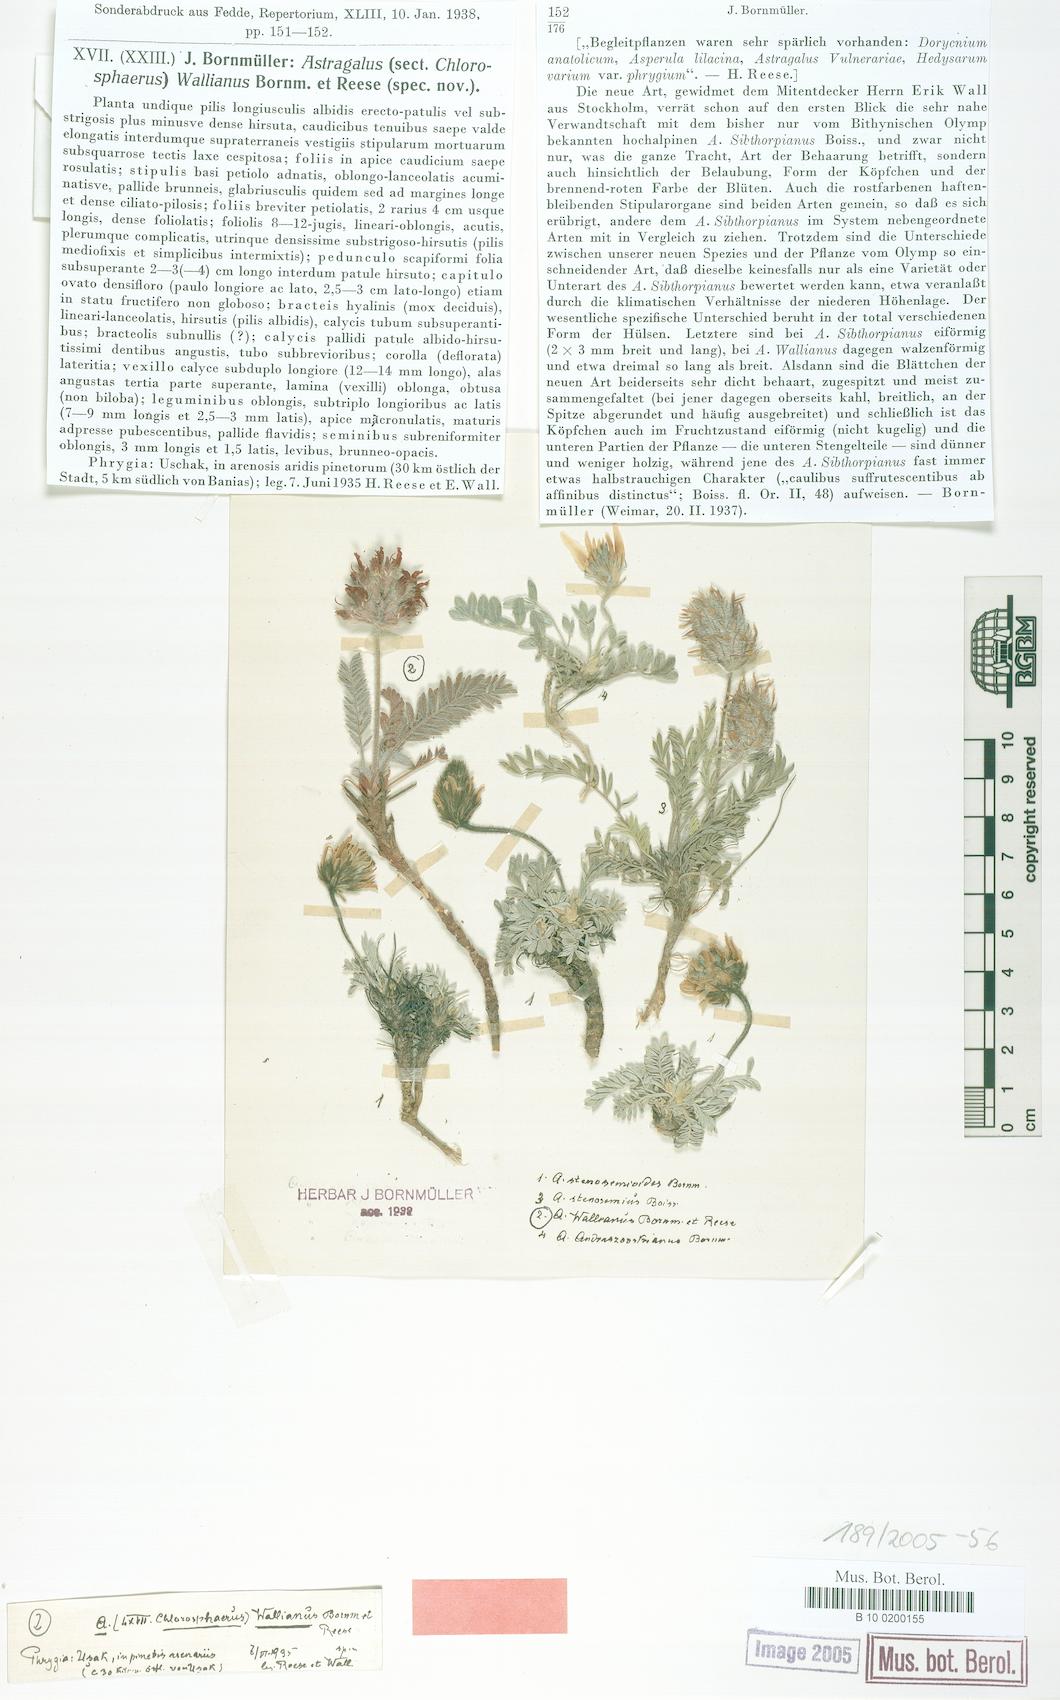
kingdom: Plantae
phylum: Tracheophyta
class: Magnoliopsida
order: Fabales
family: Fabaceae
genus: Astragalus
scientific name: Astragalus sibthorpianus
